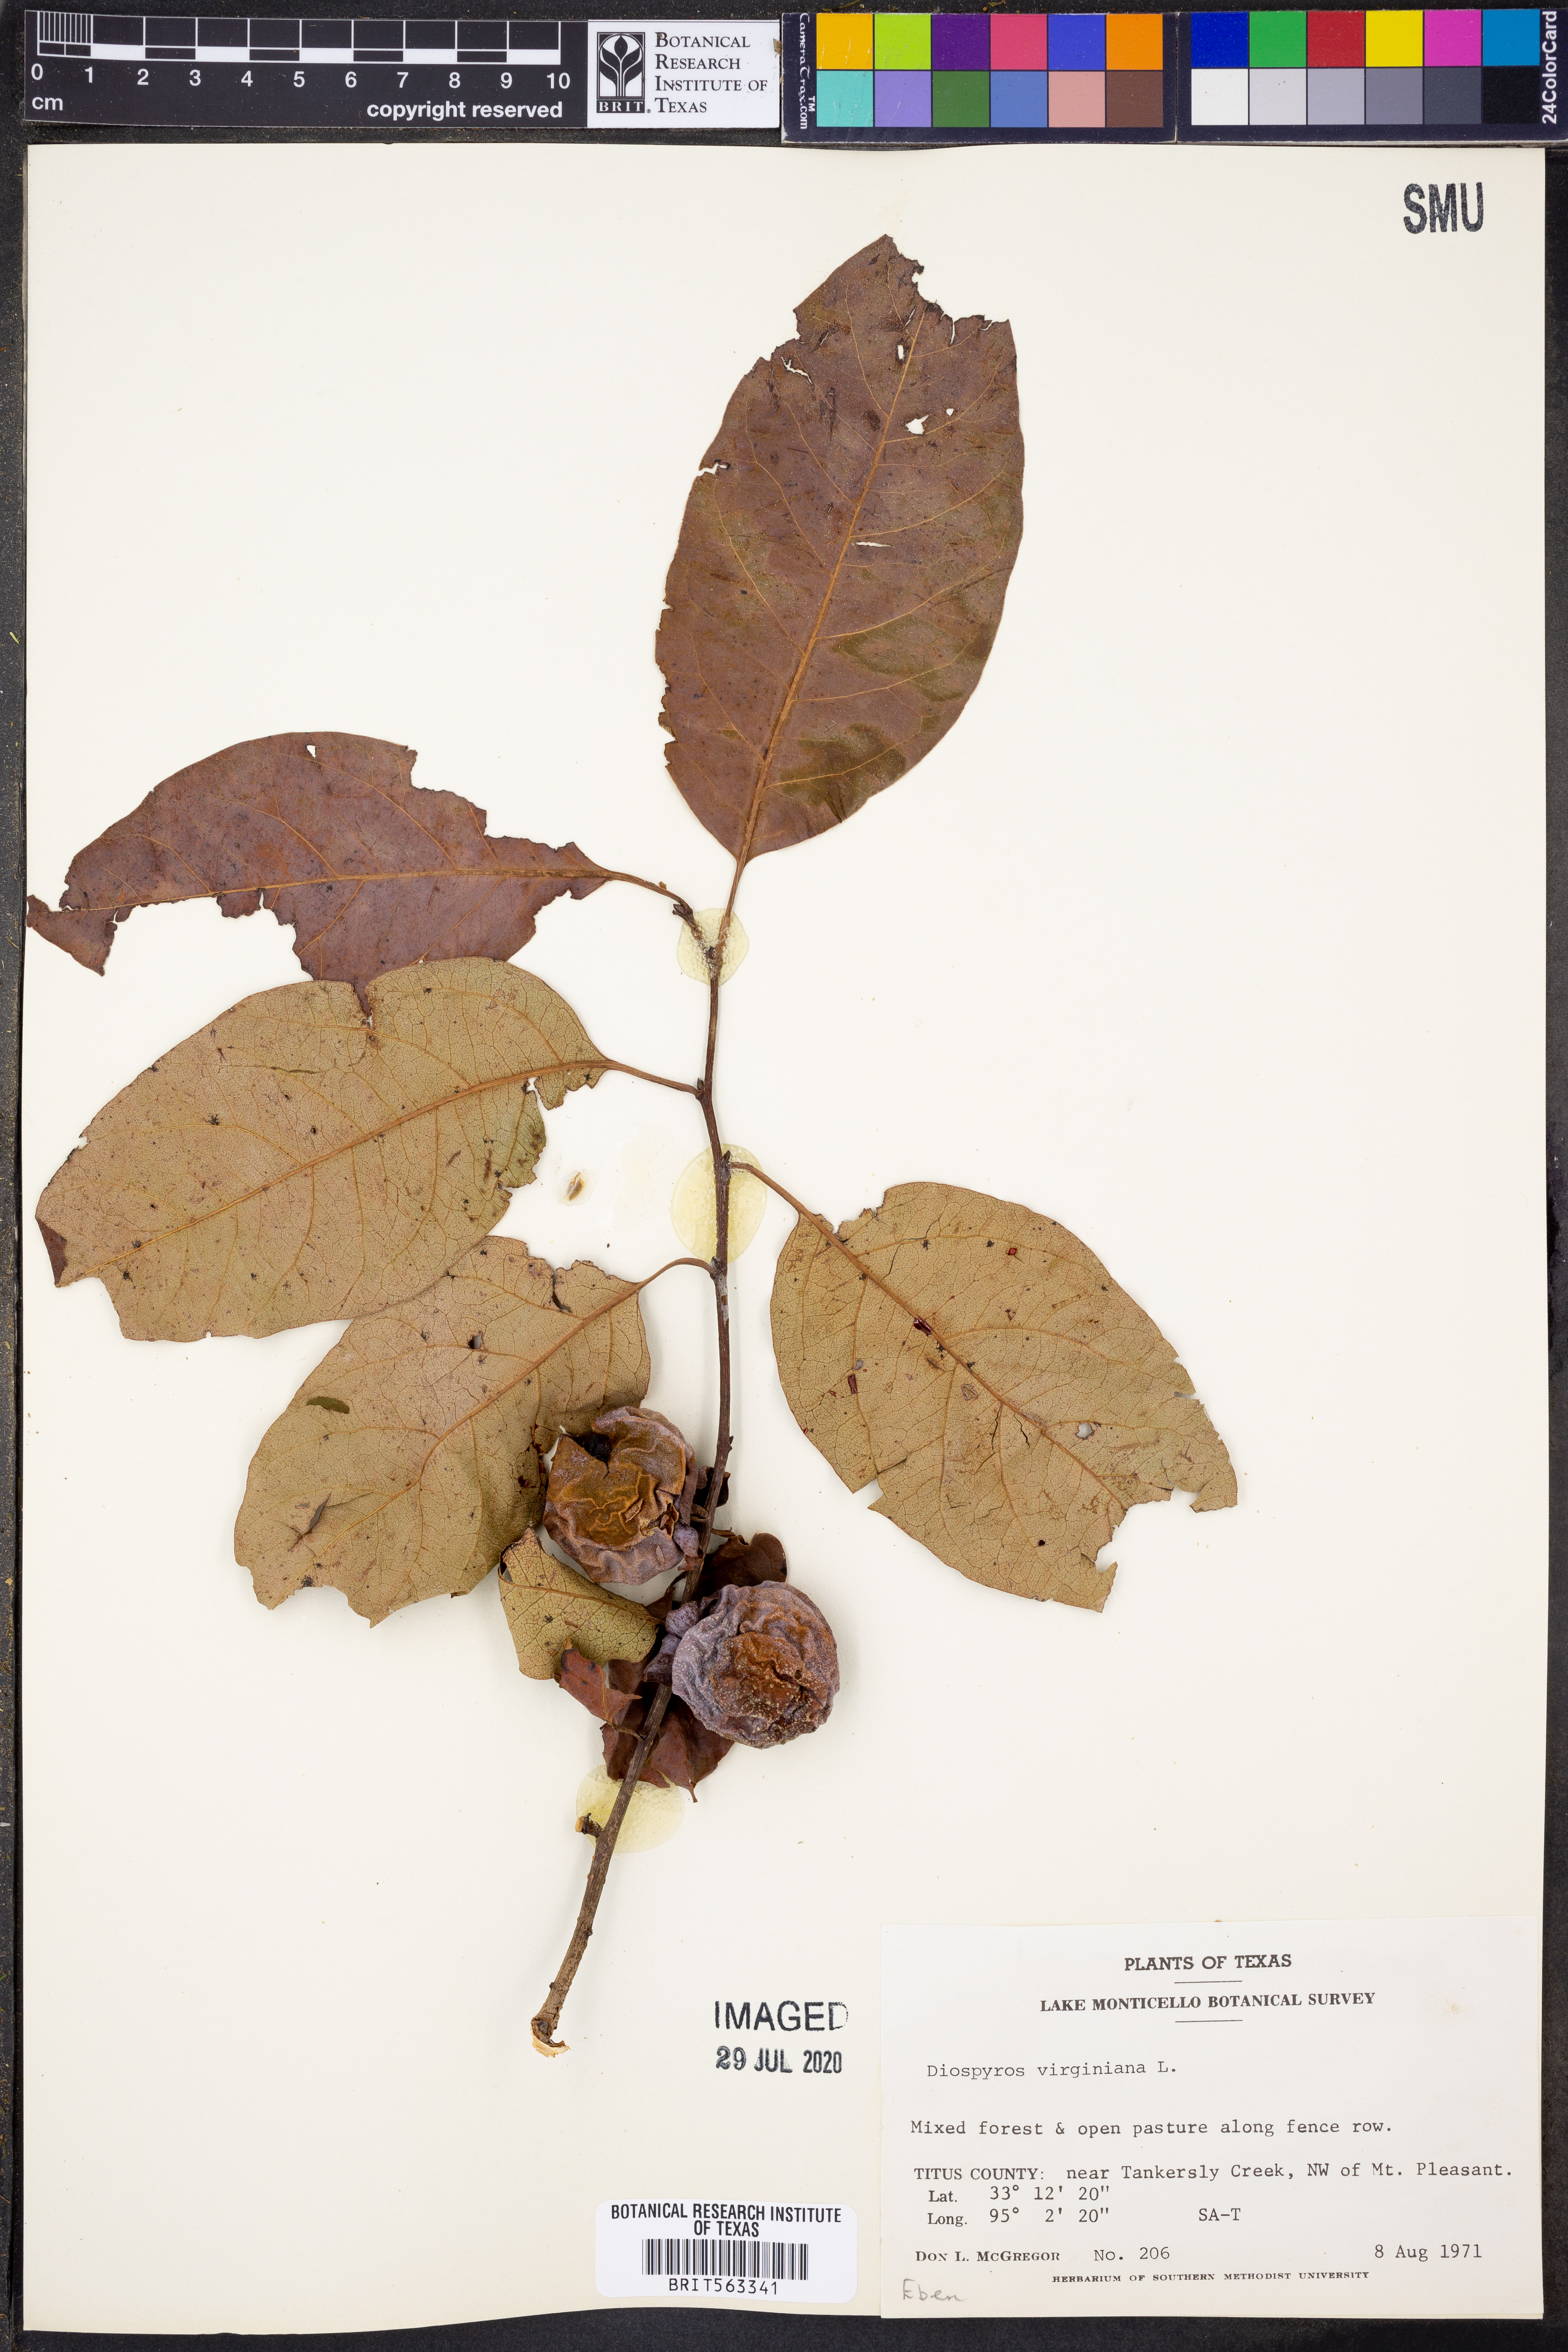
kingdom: Plantae
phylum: Tracheophyta
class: Magnoliopsida
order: Ericales
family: Ebenaceae
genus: Diospyros
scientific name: Diospyros virginiana
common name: Persimmon
